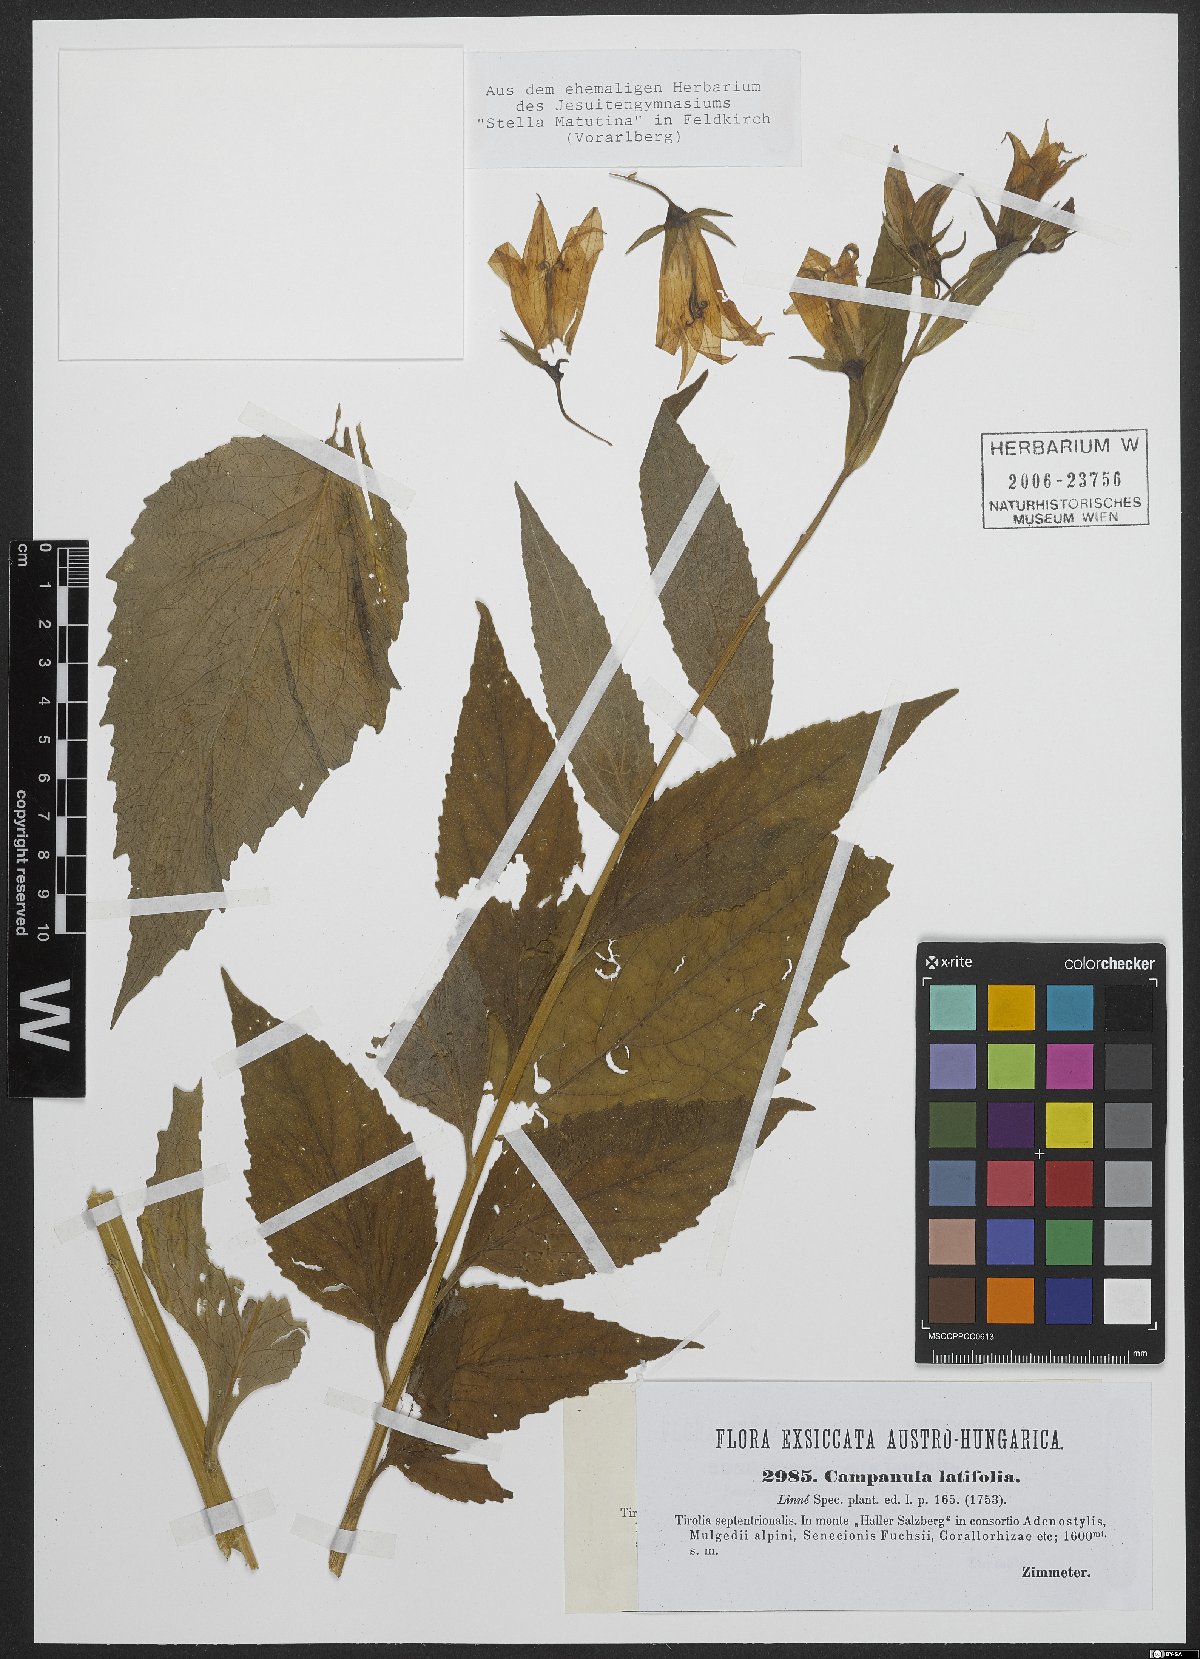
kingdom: Plantae
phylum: Tracheophyta
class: Magnoliopsida
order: Asterales
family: Campanulaceae
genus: Campanula
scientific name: Campanula latifolia
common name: Giant bellflower
